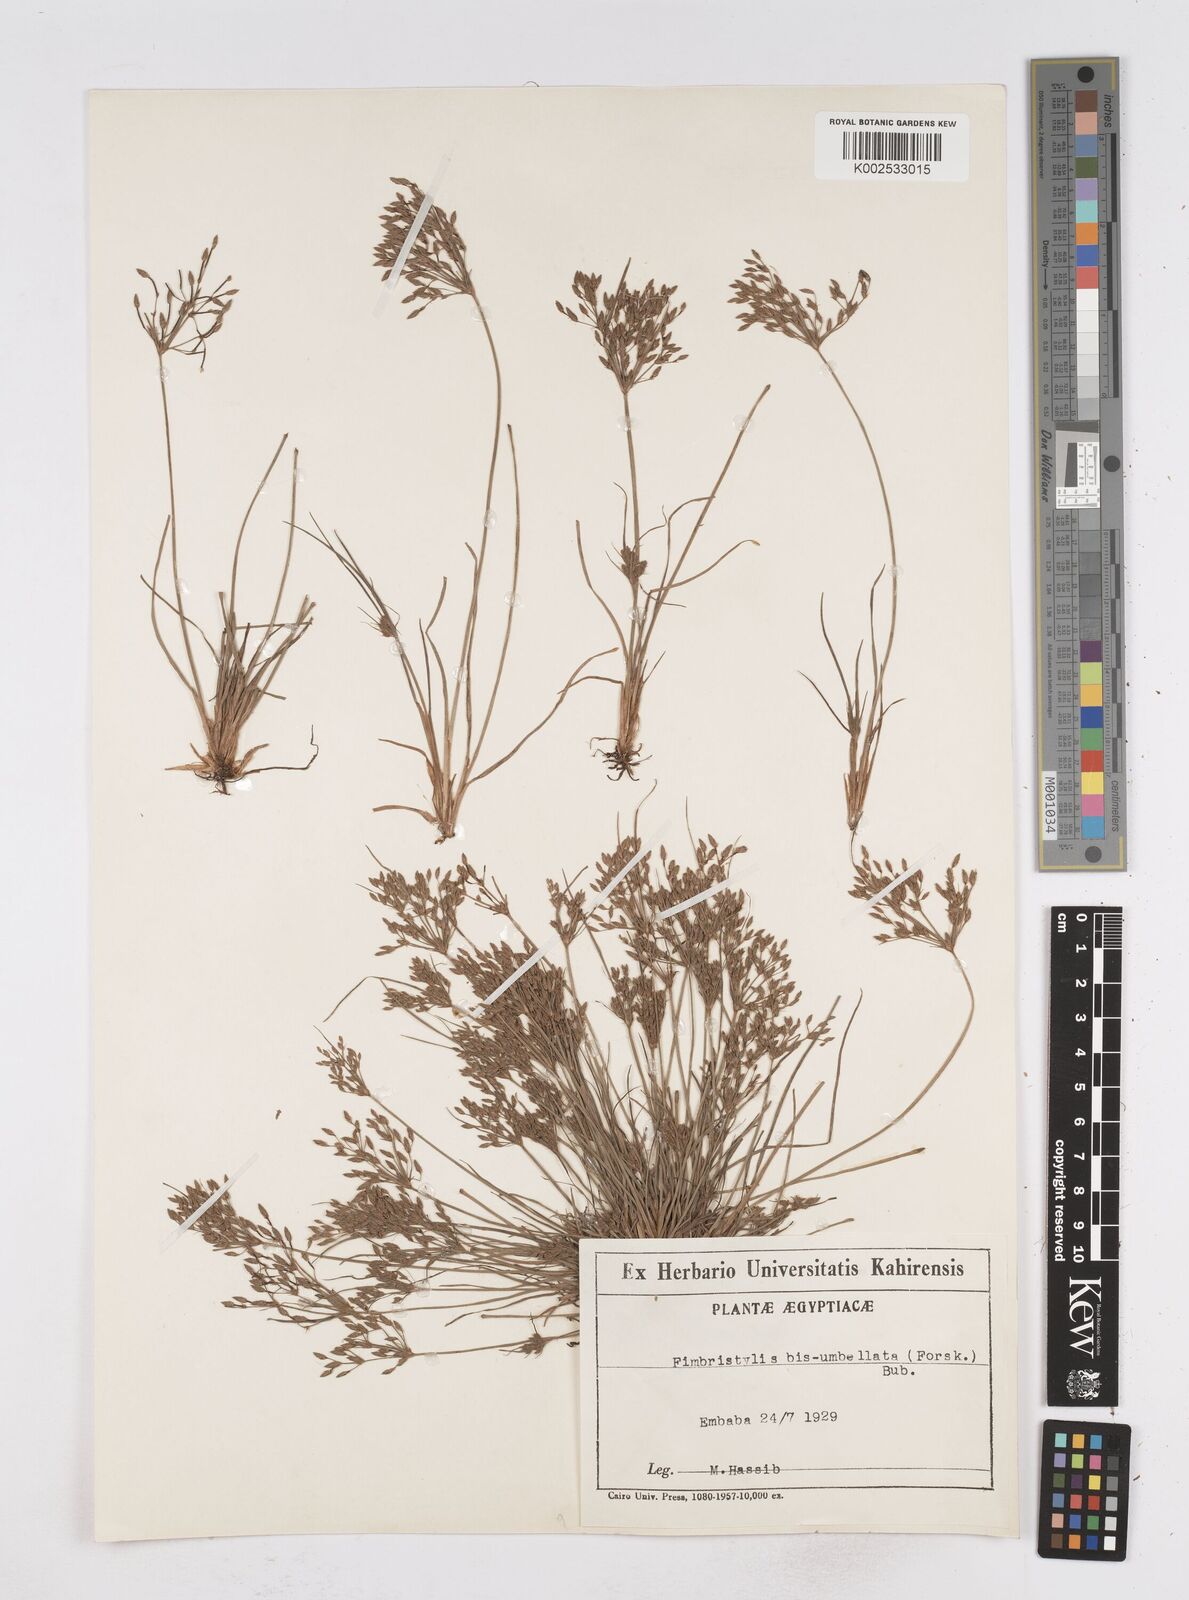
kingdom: Plantae
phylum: Tracheophyta
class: Liliopsida
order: Poales
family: Cyperaceae
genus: Fimbristylis
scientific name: Fimbristylis bisumbellata
